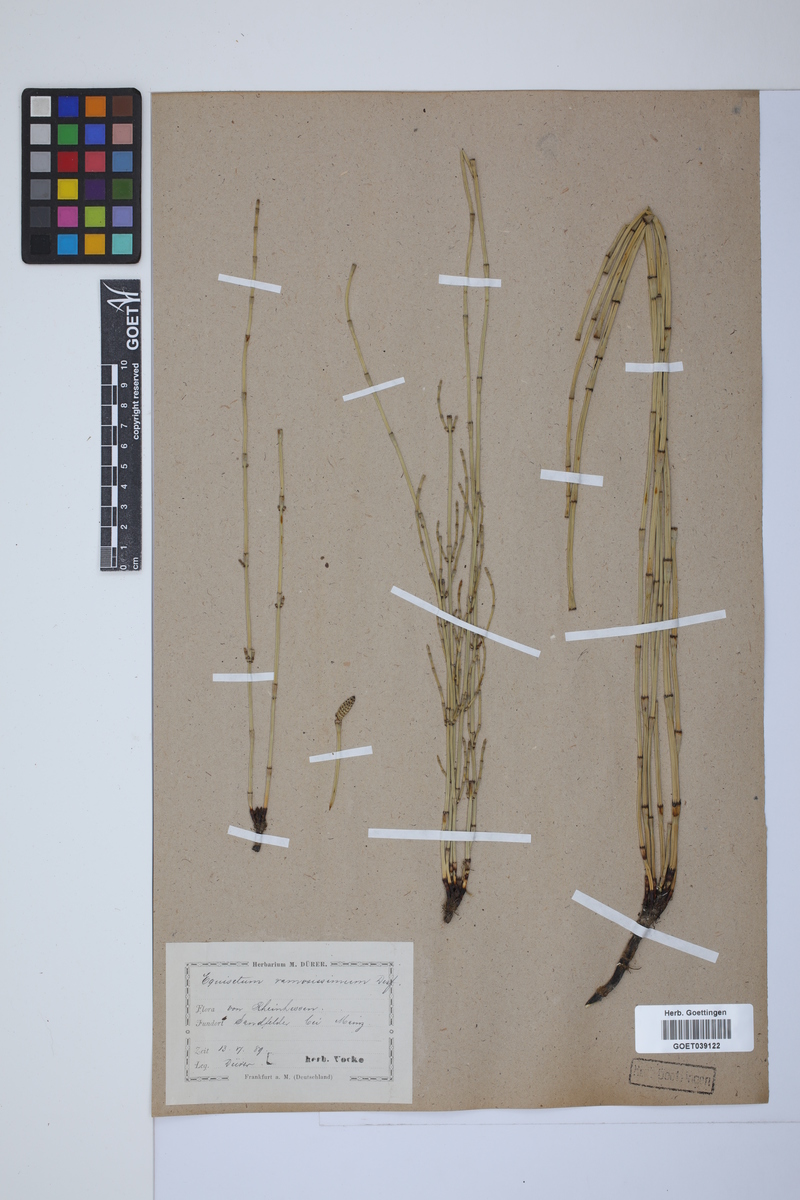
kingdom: Plantae
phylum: Tracheophyta
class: Polypodiopsida
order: Equisetales
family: Equisetaceae
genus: Equisetum
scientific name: Equisetum giganteum
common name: Giant horsetail
